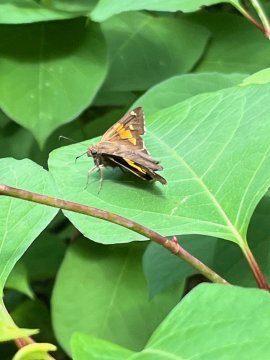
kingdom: Animalia
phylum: Arthropoda
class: Insecta
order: Lepidoptera
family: Hesperiidae
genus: Epargyreus
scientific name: Epargyreus clarus
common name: Silver-spotted Skipper
